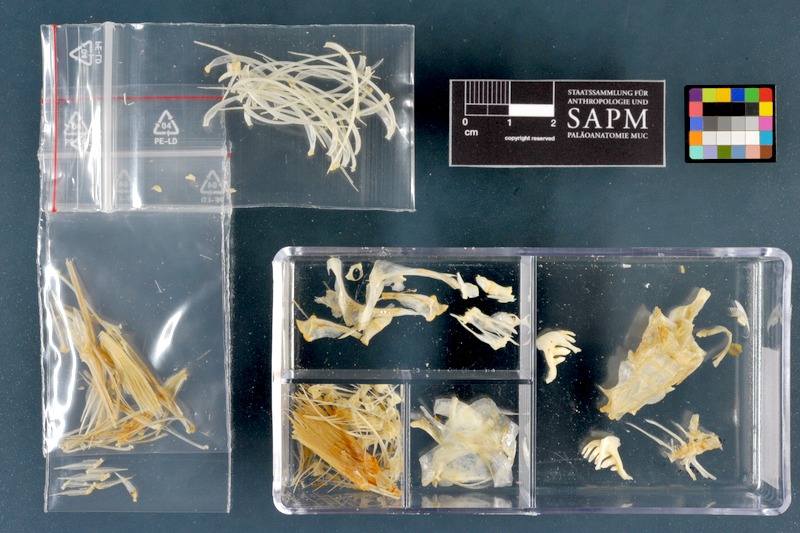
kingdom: Animalia
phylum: Chordata
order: Cypriniformes
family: Cyprinidae
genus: Rutilus
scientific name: Rutilus rutilus
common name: Roach
